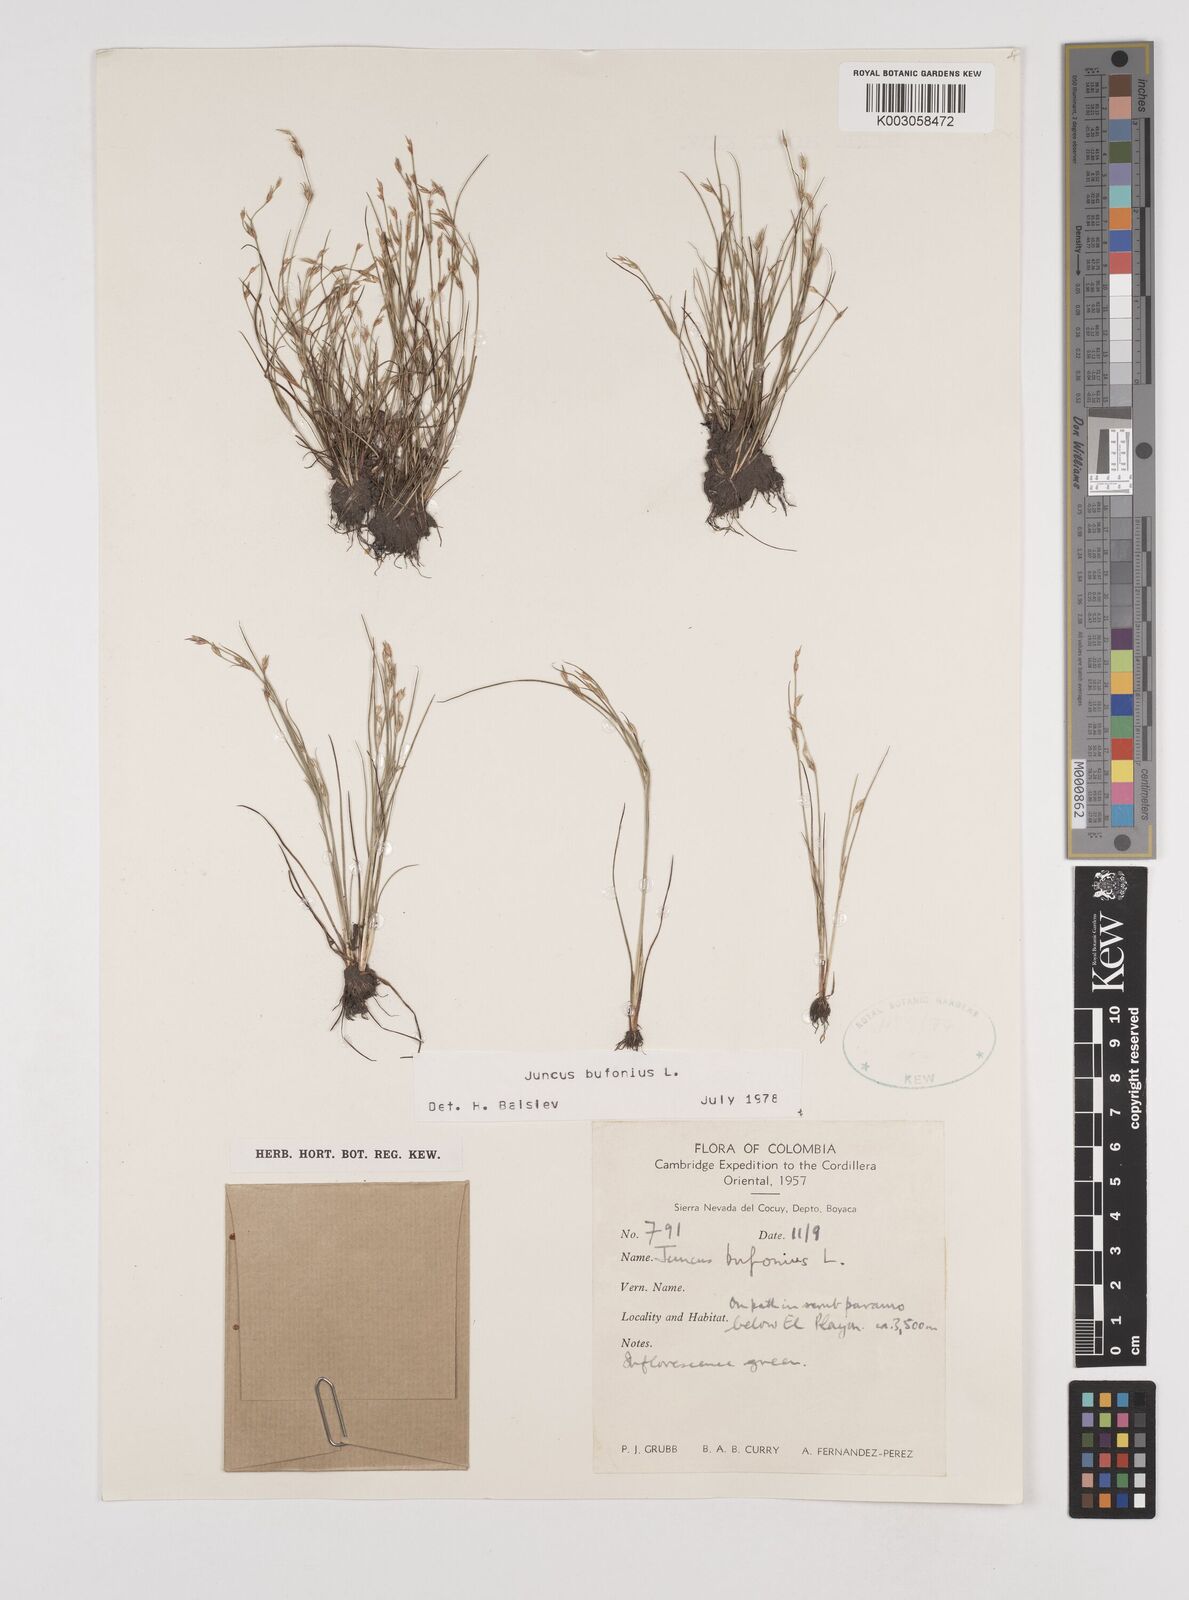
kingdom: Plantae
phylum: Tracheophyta
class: Liliopsida
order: Poales
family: Juncaceae
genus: Juncus
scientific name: Juncus bufonius
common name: Toad rush
